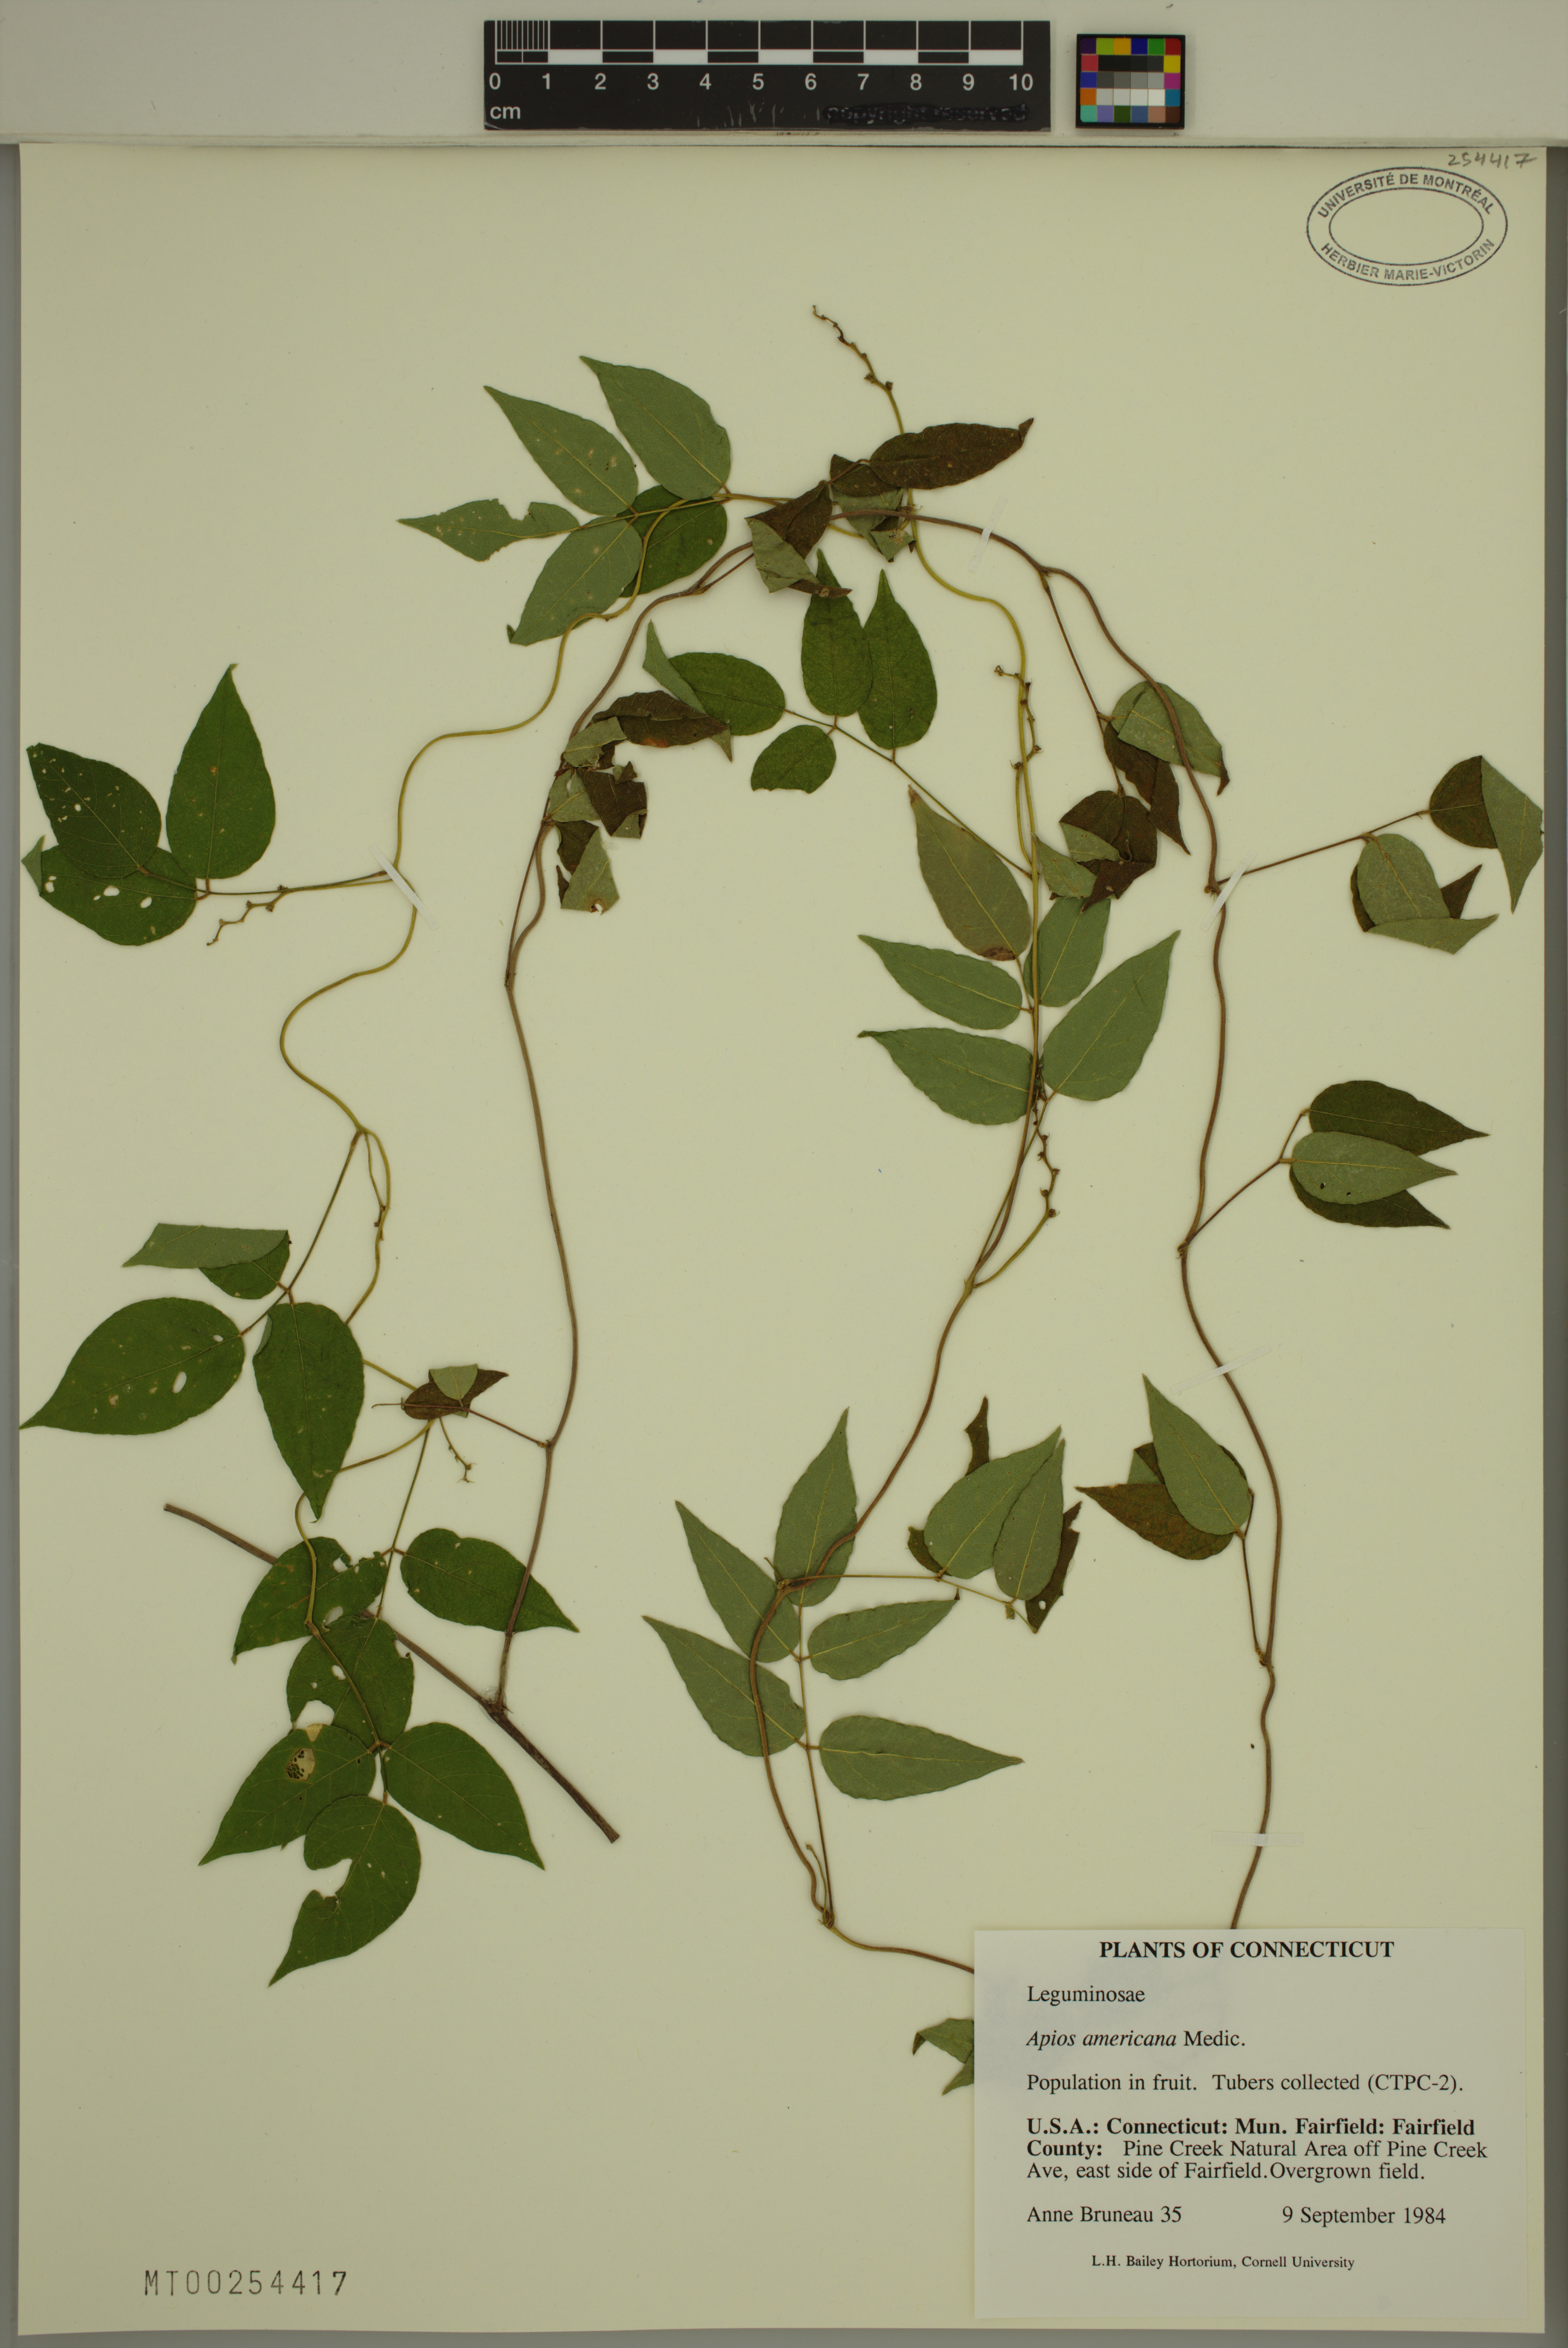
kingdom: Plantae
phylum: Tracheophyta
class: Magnoliopsida
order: Fabales
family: Fabaceae
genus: Apios
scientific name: Apios americana
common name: American potato-bean
